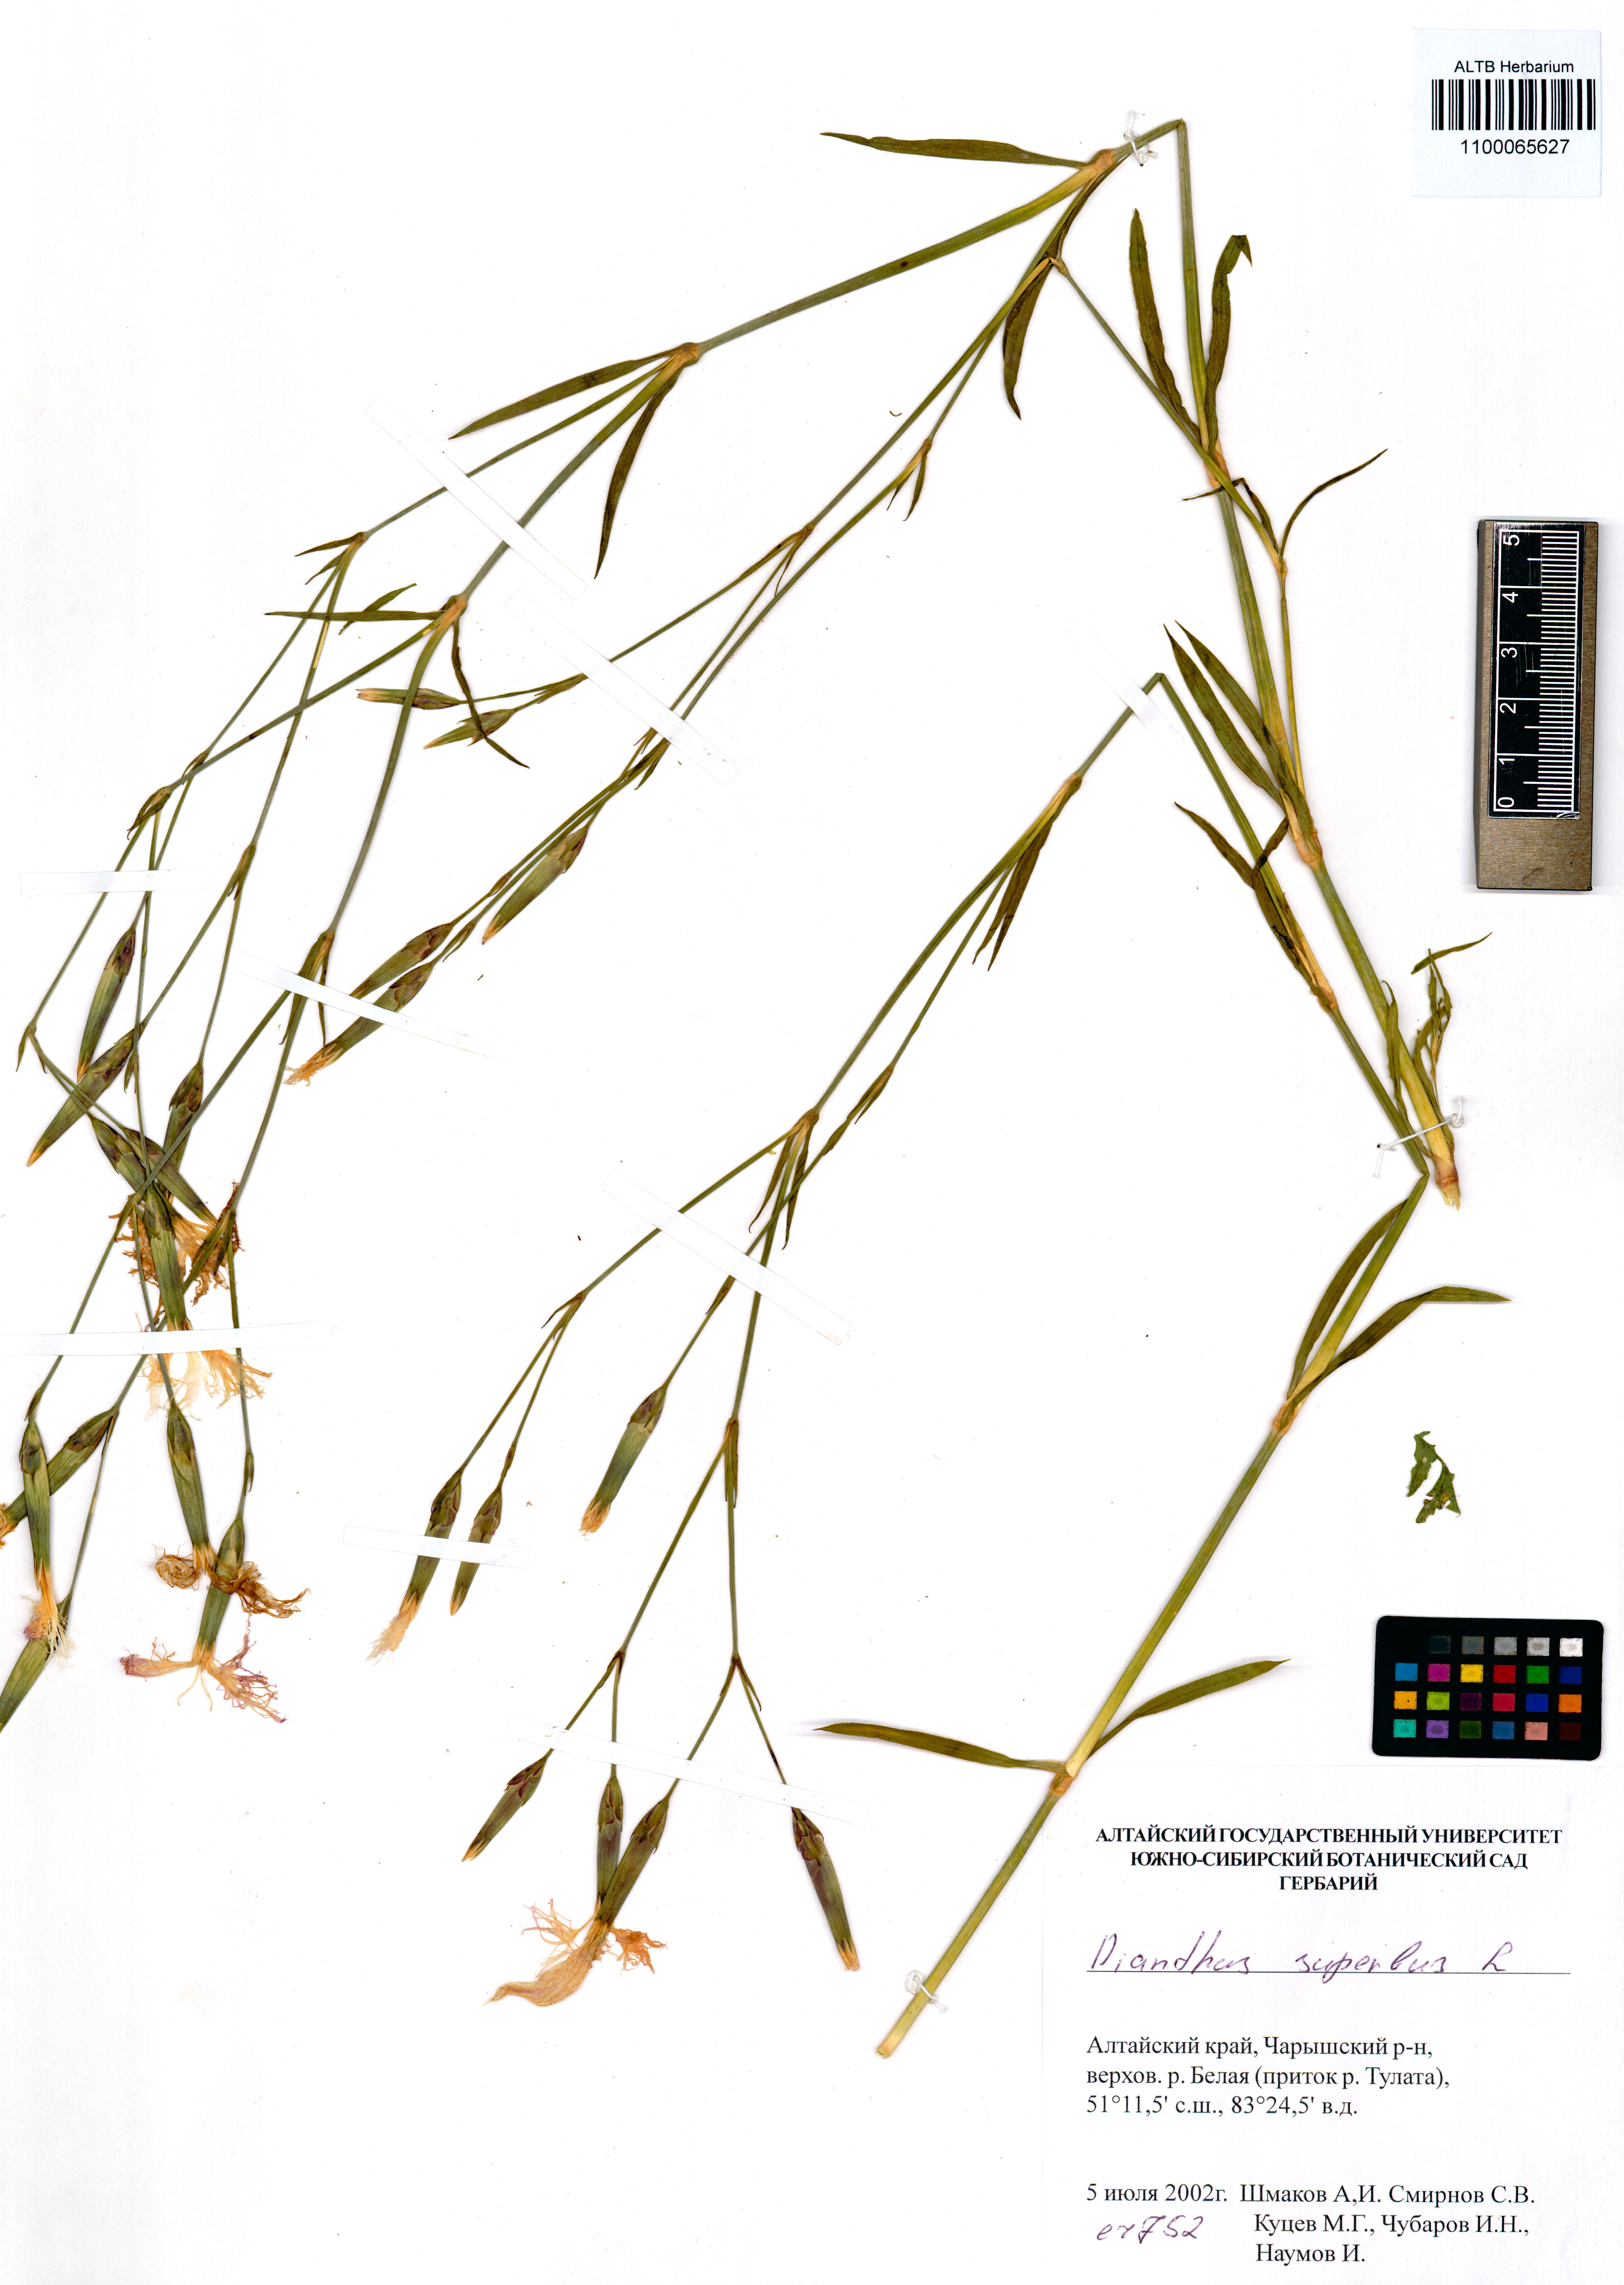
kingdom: Plantae
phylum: Tracheophyta
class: Magnoliopsida
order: Caryophyllales
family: Caryophyllaceae
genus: Dianthus
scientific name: Dianthus superbus
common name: Fringed pink
